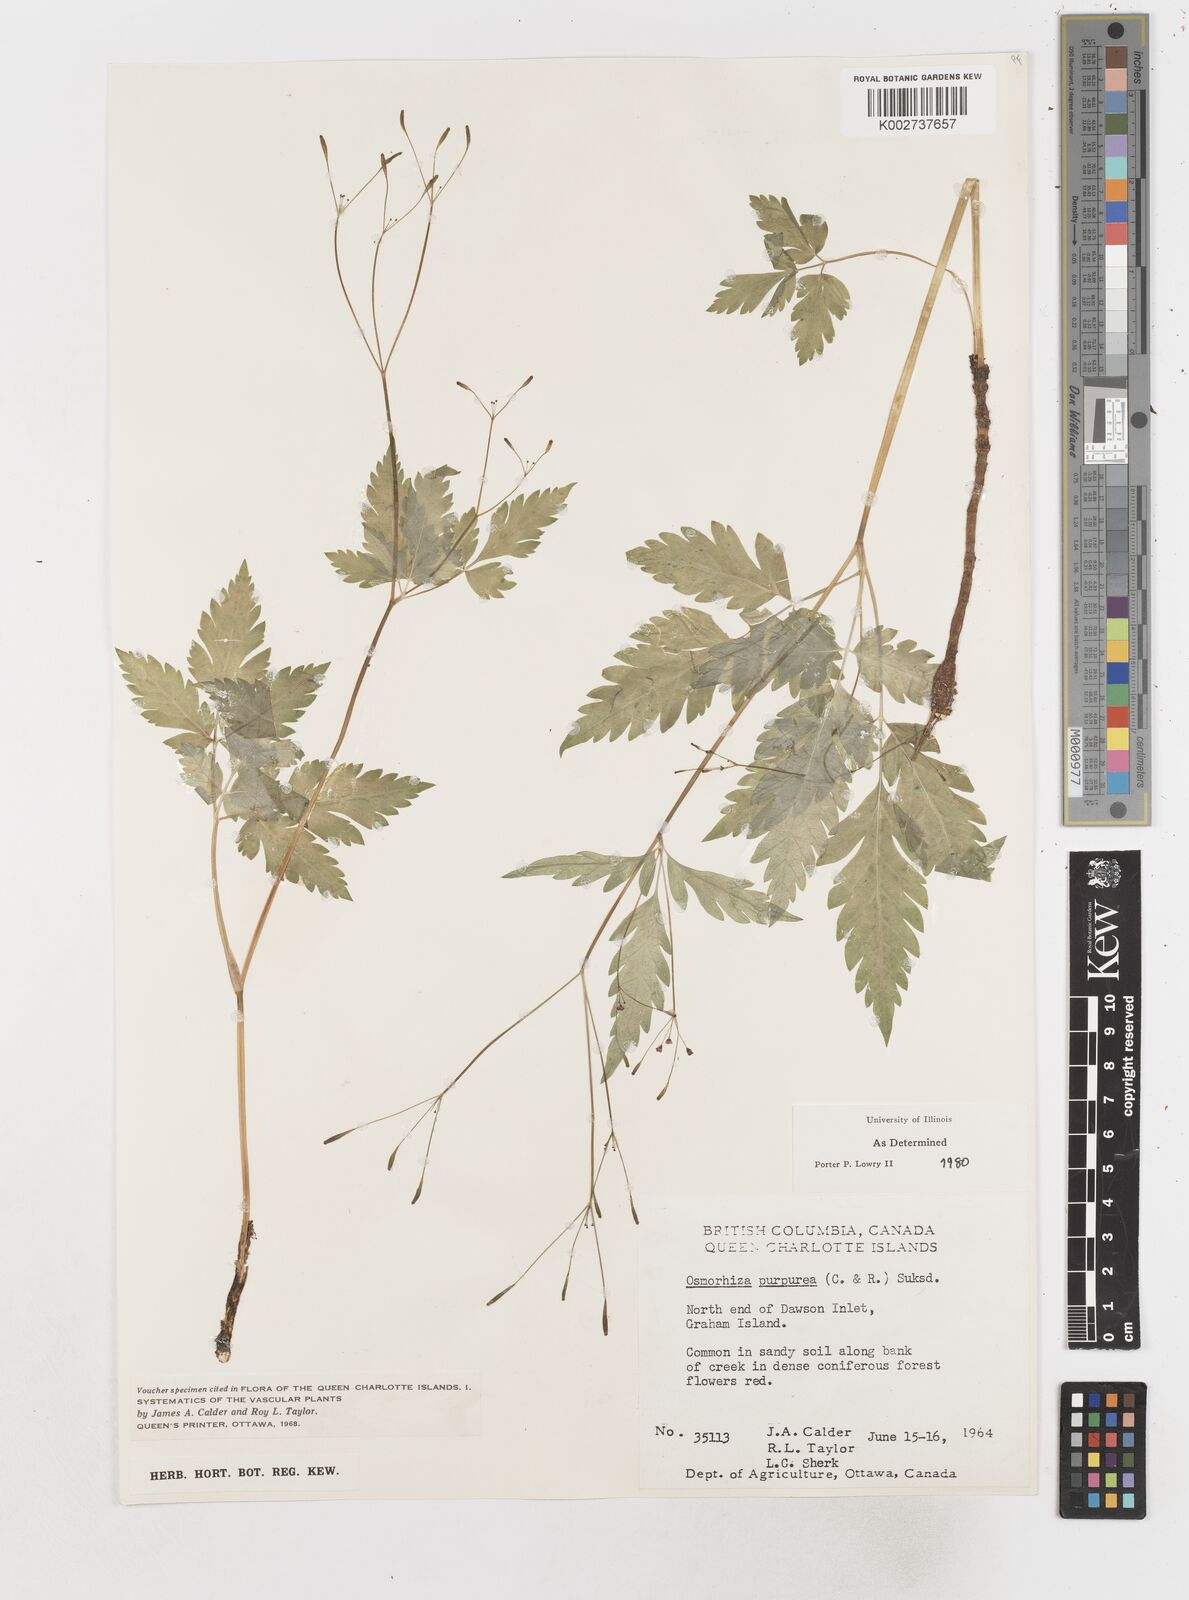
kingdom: Plantae
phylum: Tracheophyta
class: Magnoliopsida
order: Apiales
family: Apiaceae
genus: Osmorhiza
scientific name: Osmorhiza purpurea
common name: Purple sweet cicely
